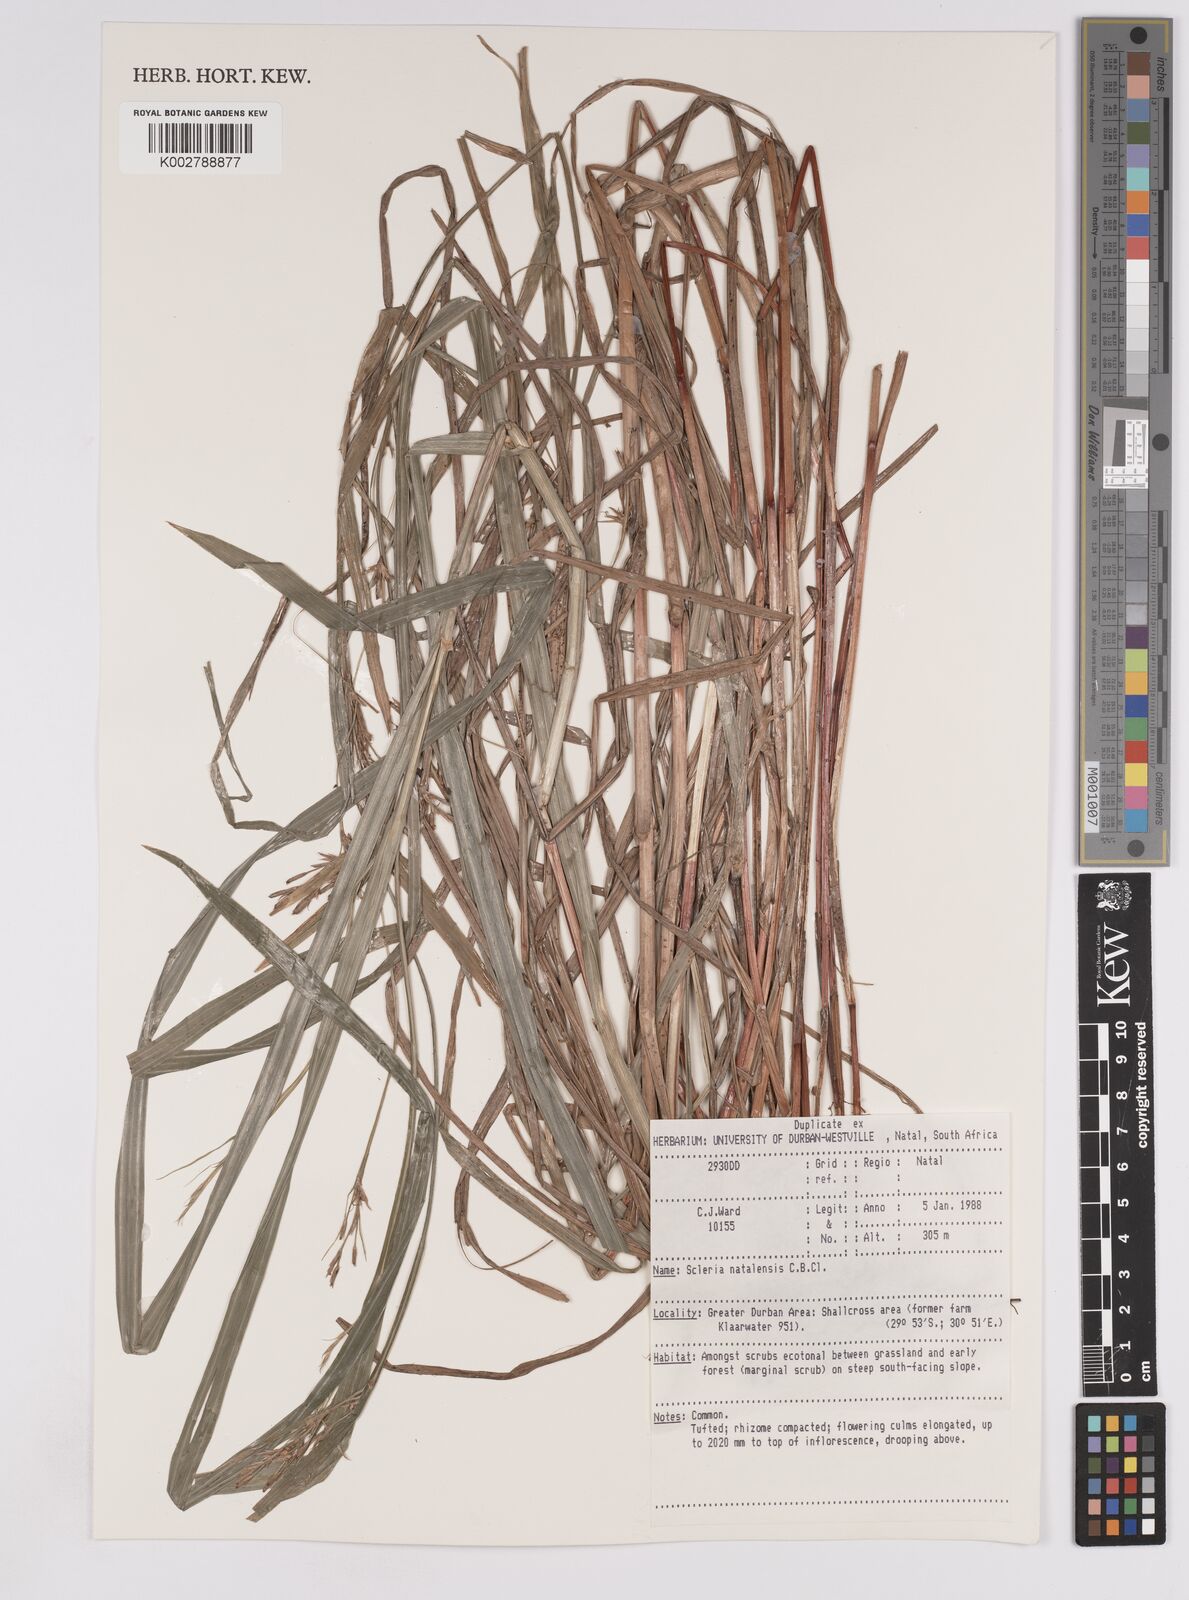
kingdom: Plantae
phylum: Tracheophyta
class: Liliopsida
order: Poales
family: Cyperaceae
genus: Scleria
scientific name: Scleria natalensis
